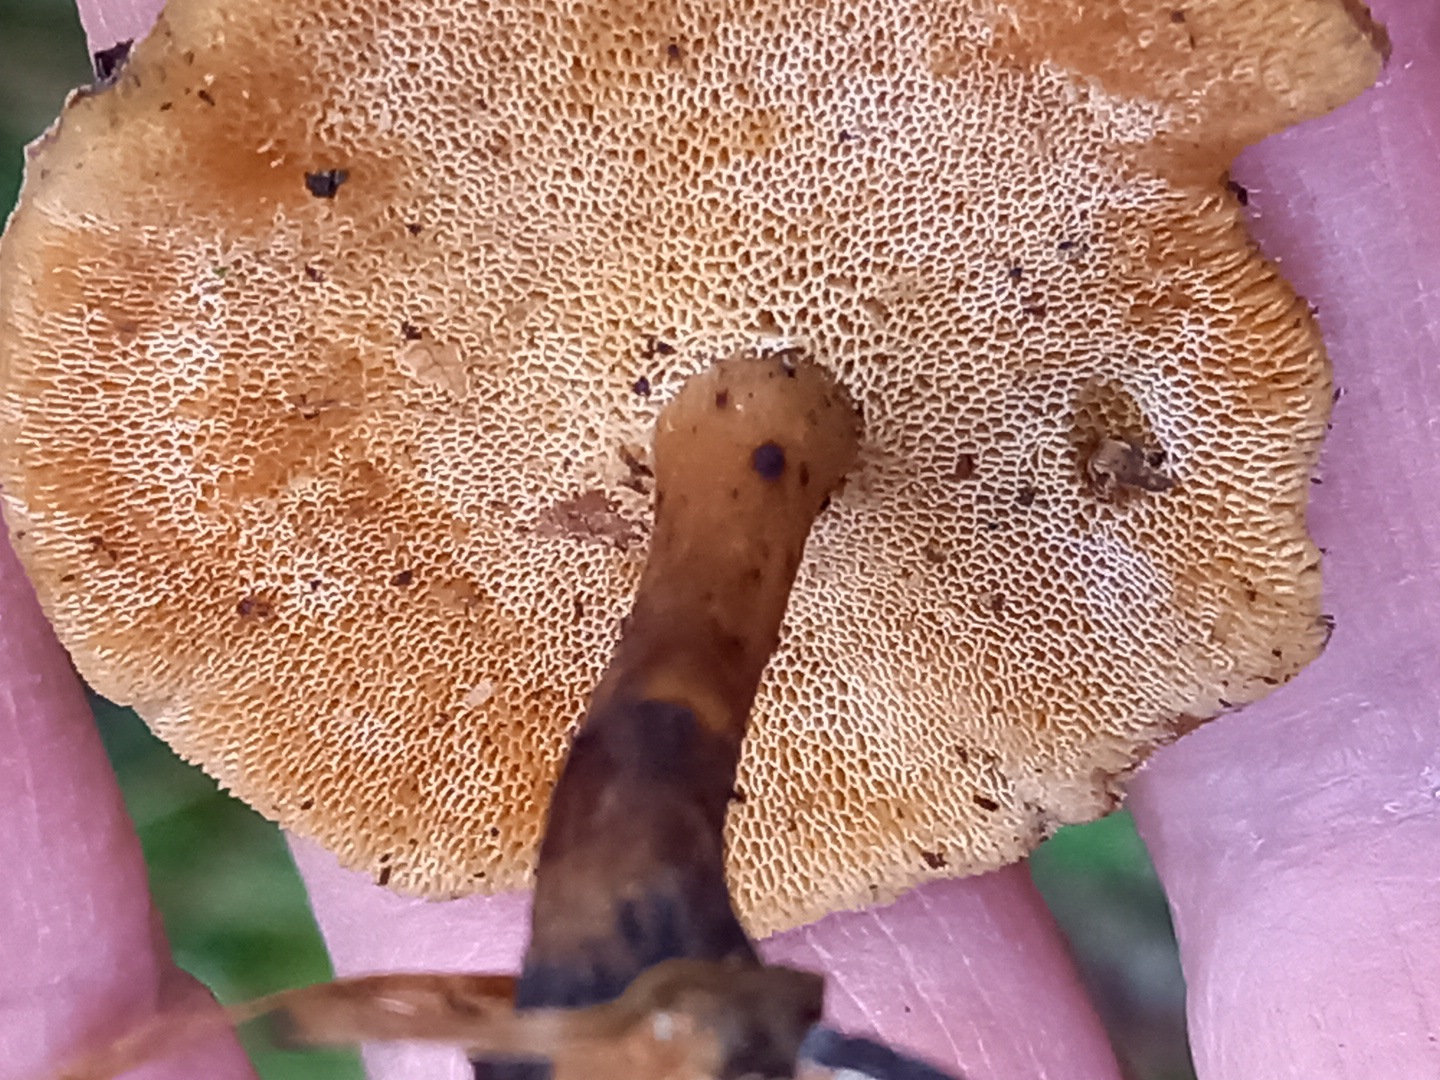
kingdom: Fungi
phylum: Basidiomycota
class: Agaricomycetes
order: Polyporales
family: Polyporaceae
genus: Lentinus
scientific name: Lentinus brumalis
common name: vinter-stilkporesvamp
